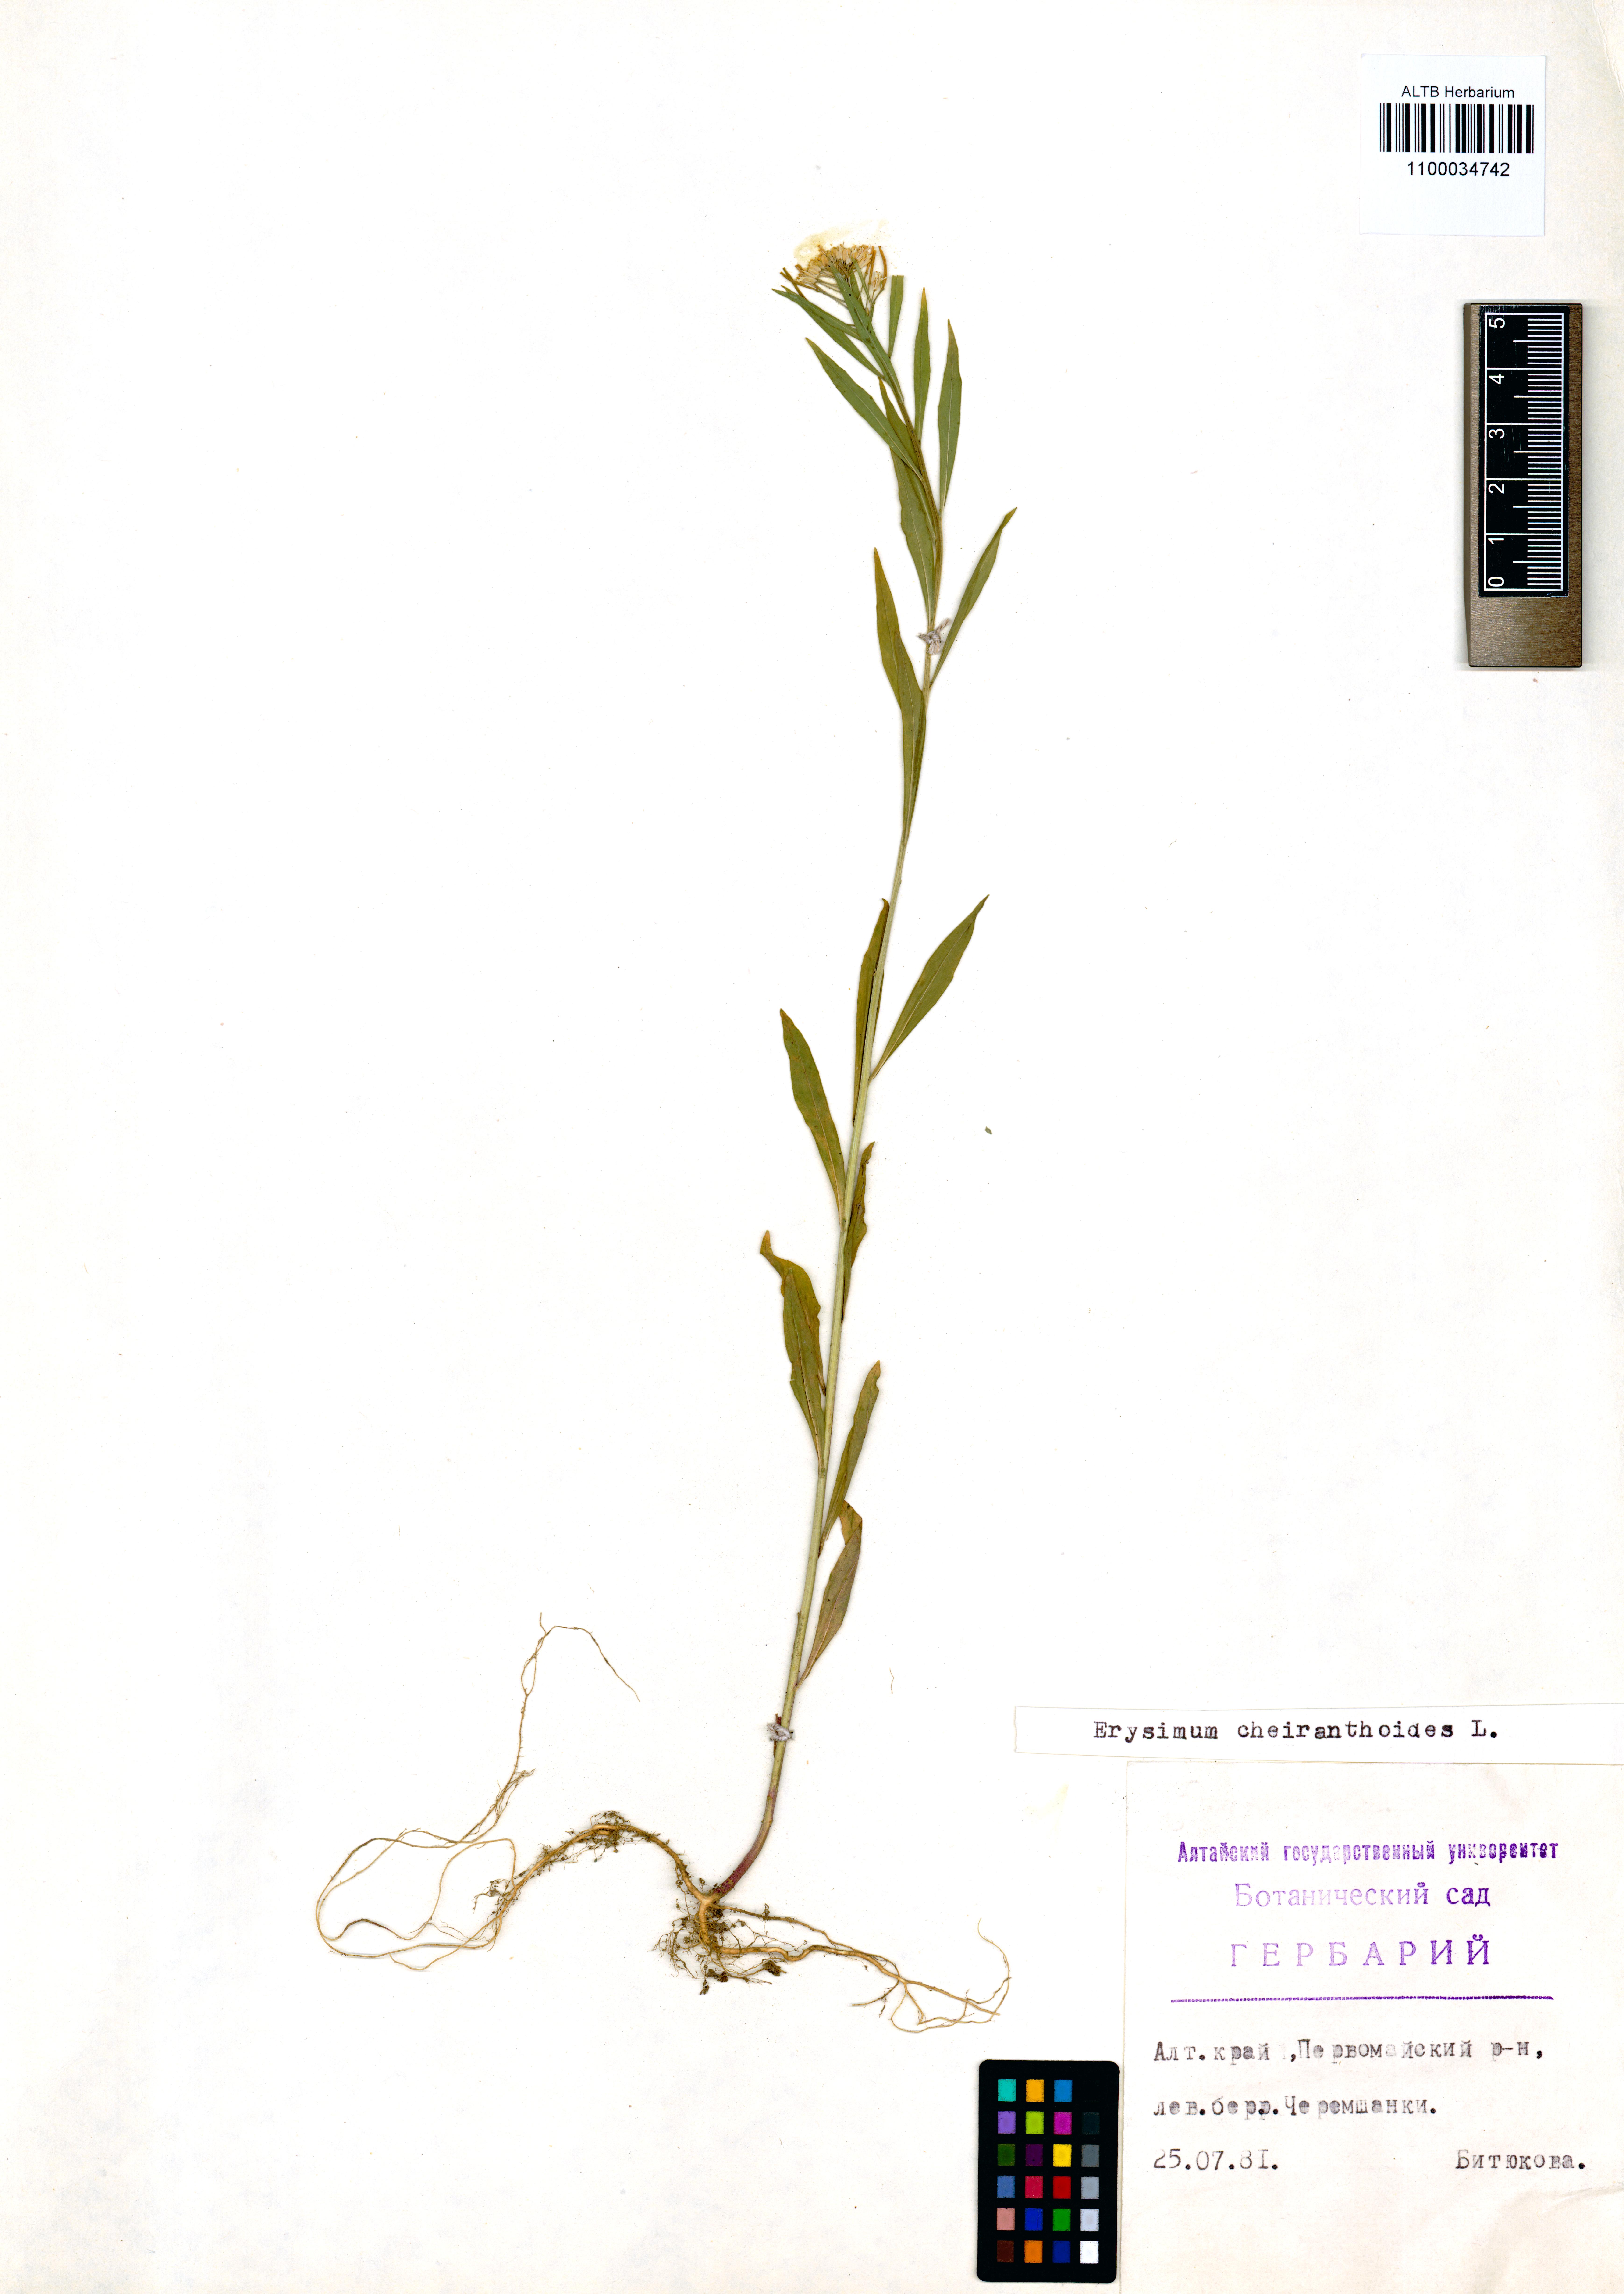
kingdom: Plantae
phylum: Tracheophyta
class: Magnoliopsida
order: Brassicales
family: Brassicaceae
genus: Erysimum
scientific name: Erysimum cheiranthoides
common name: Treacle mustard
